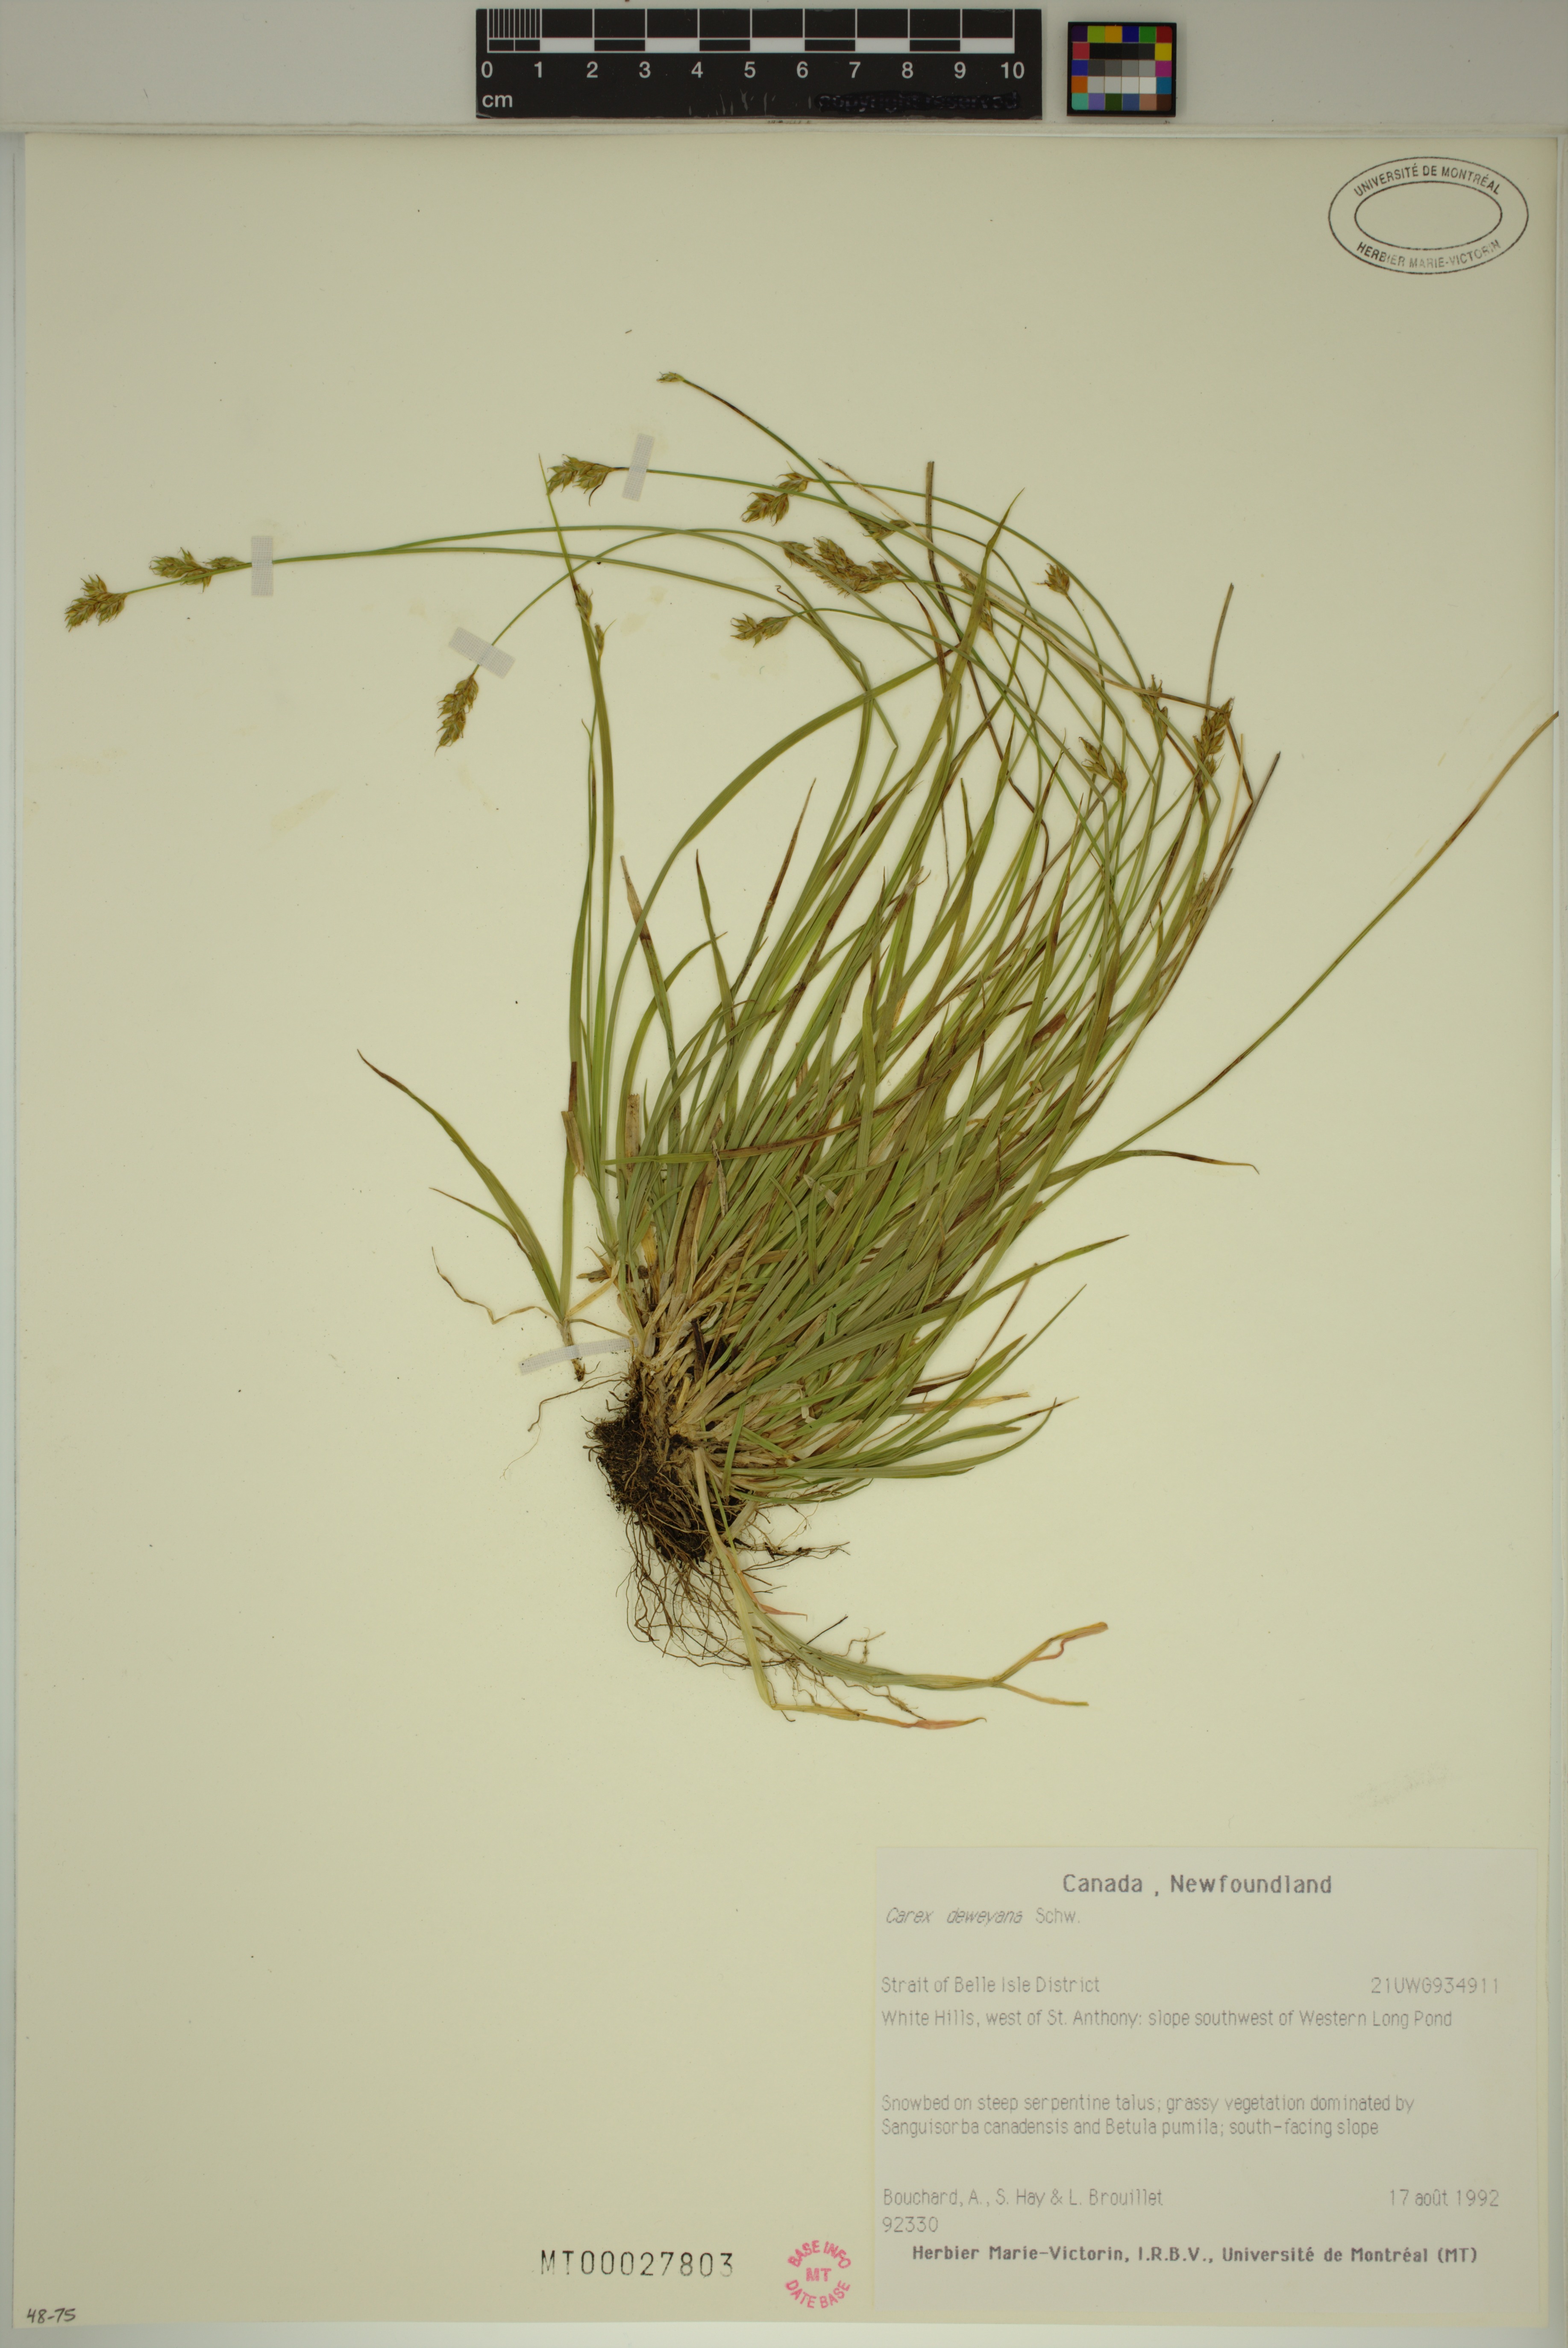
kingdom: Plantae
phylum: Tracheophyta
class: Liliopsida
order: Poales
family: Cyperaceae
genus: Carex
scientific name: Carex deweyana
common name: Dewey's sedge
